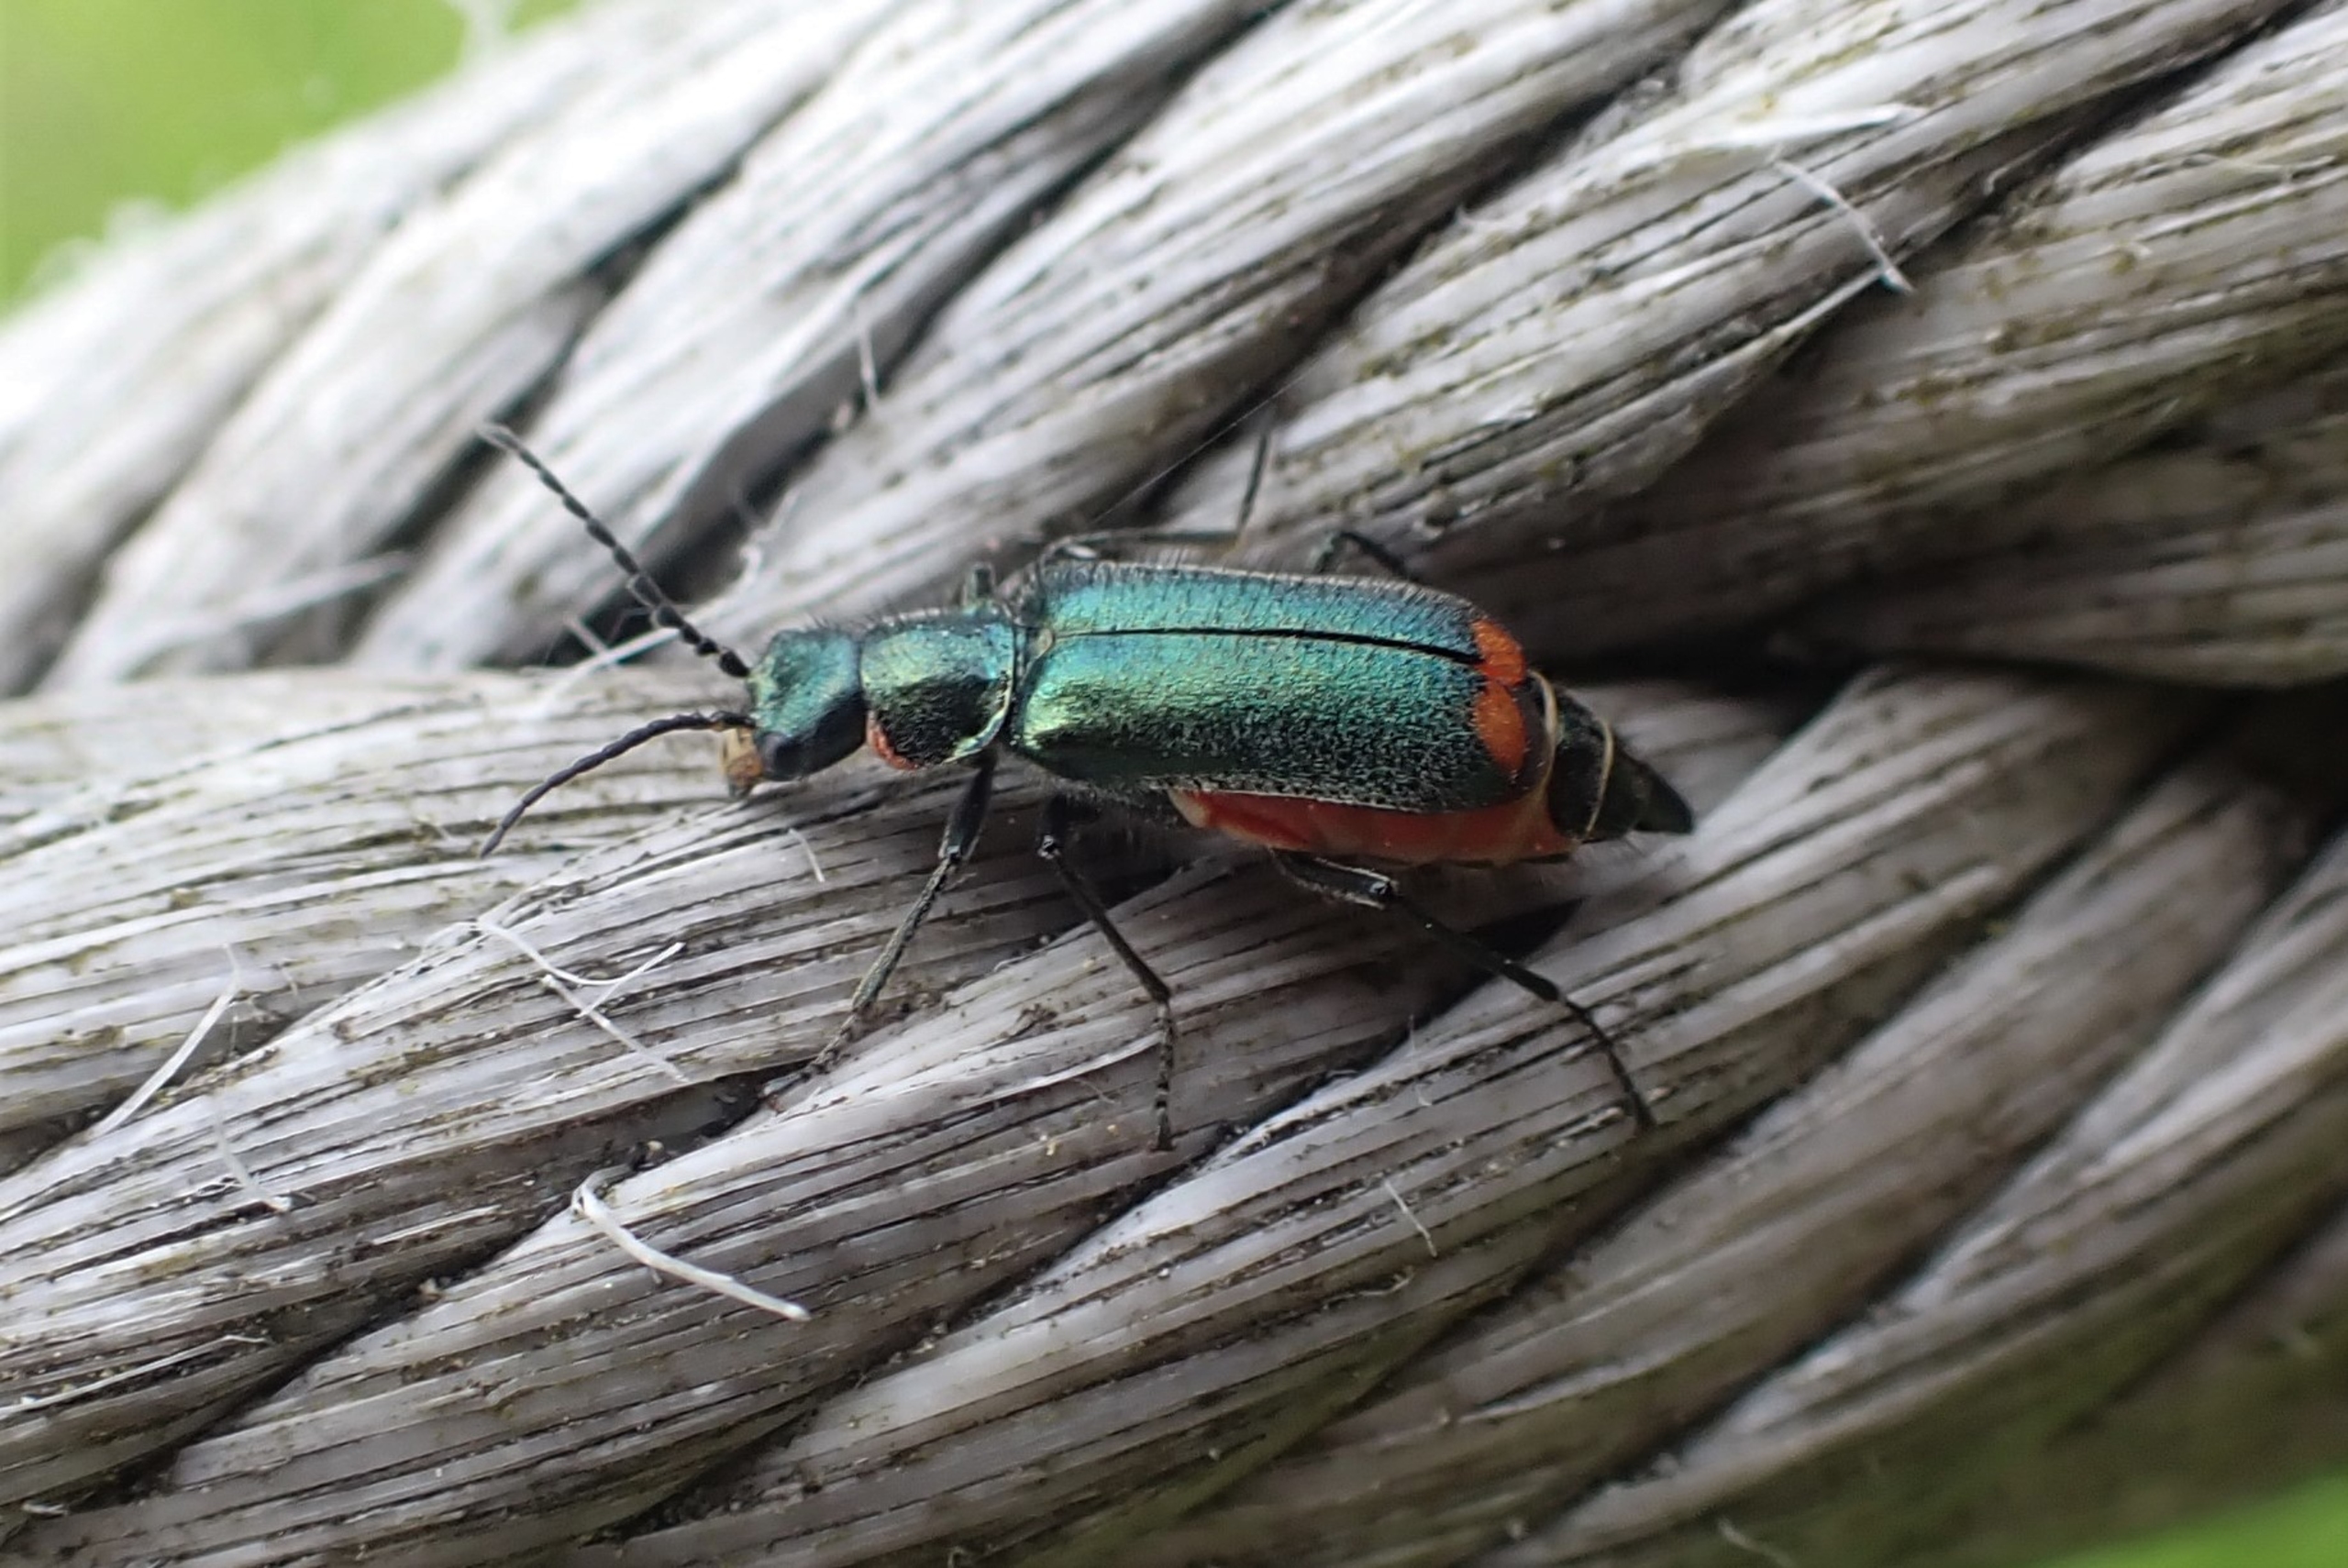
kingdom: Animalia
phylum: Arthropoda
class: Insecta
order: Coleoptera
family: Melyridae
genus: Malachius
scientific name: Malachius bipustulatus
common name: Skovmalakitbille
